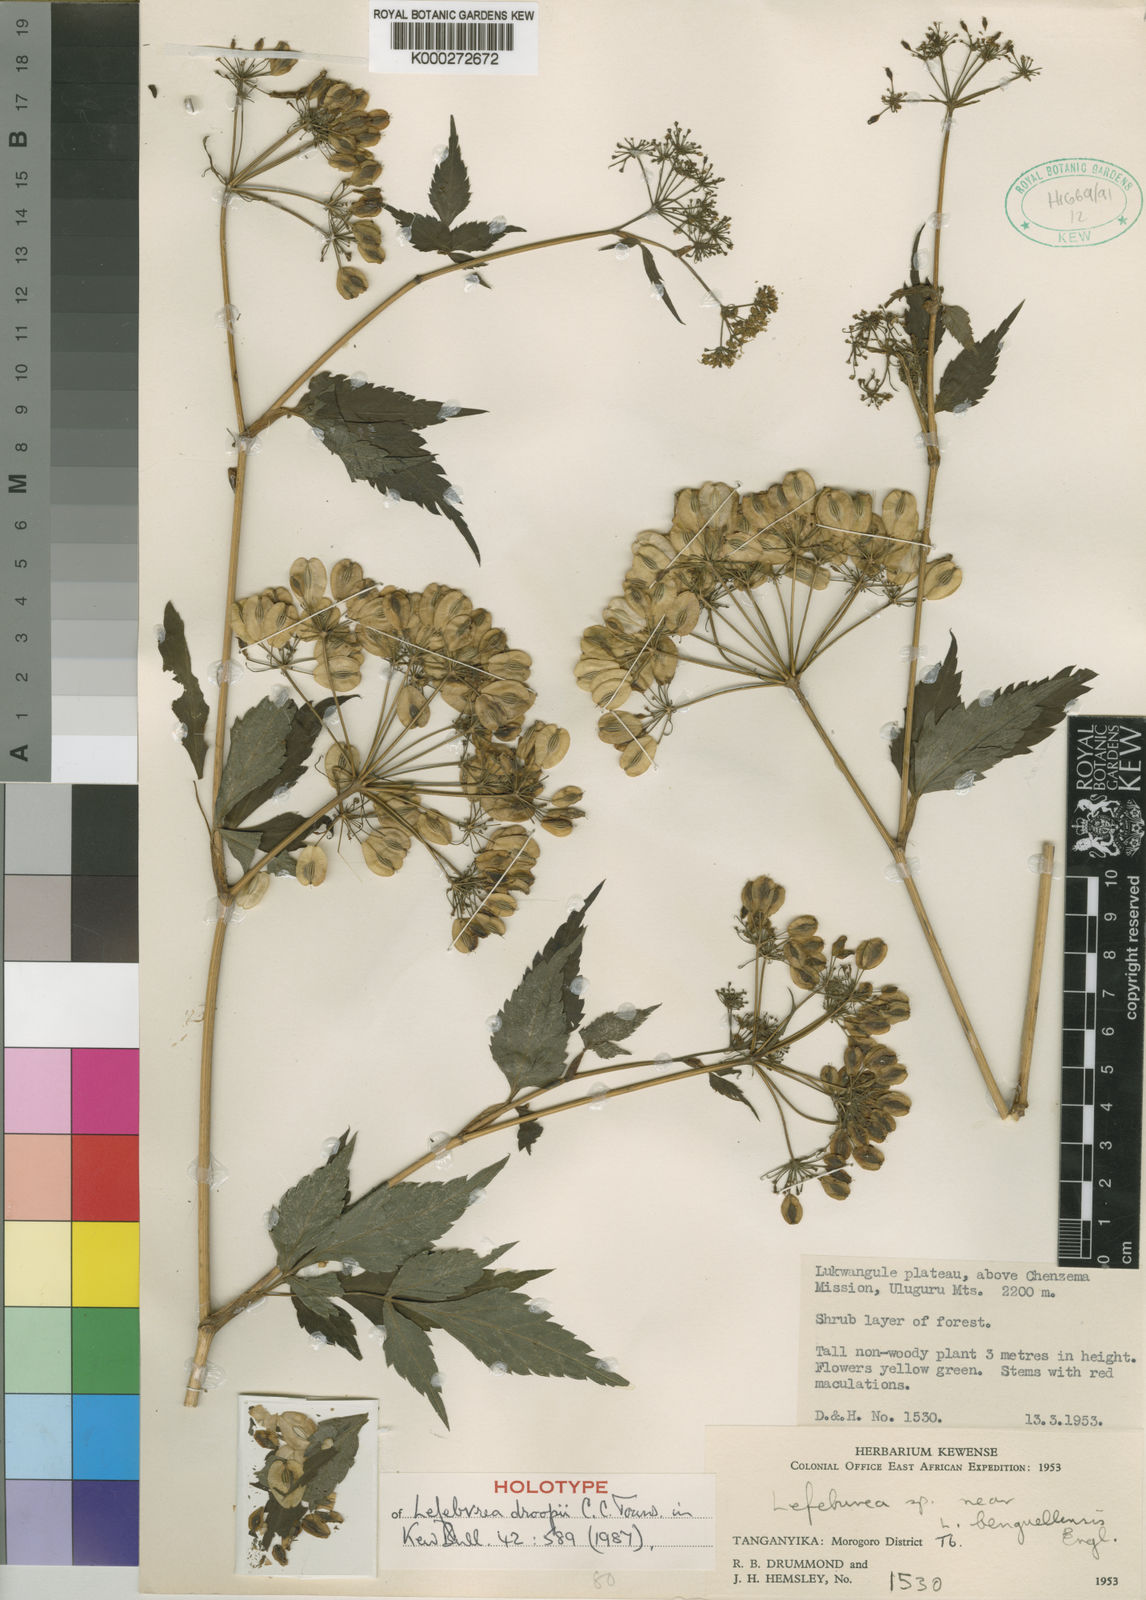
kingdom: Plantae
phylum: Tracheophyta
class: Magnoliopsida
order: Apiales
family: Apiaceae
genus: Lefebvrea
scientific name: Lefebvrea droopii
